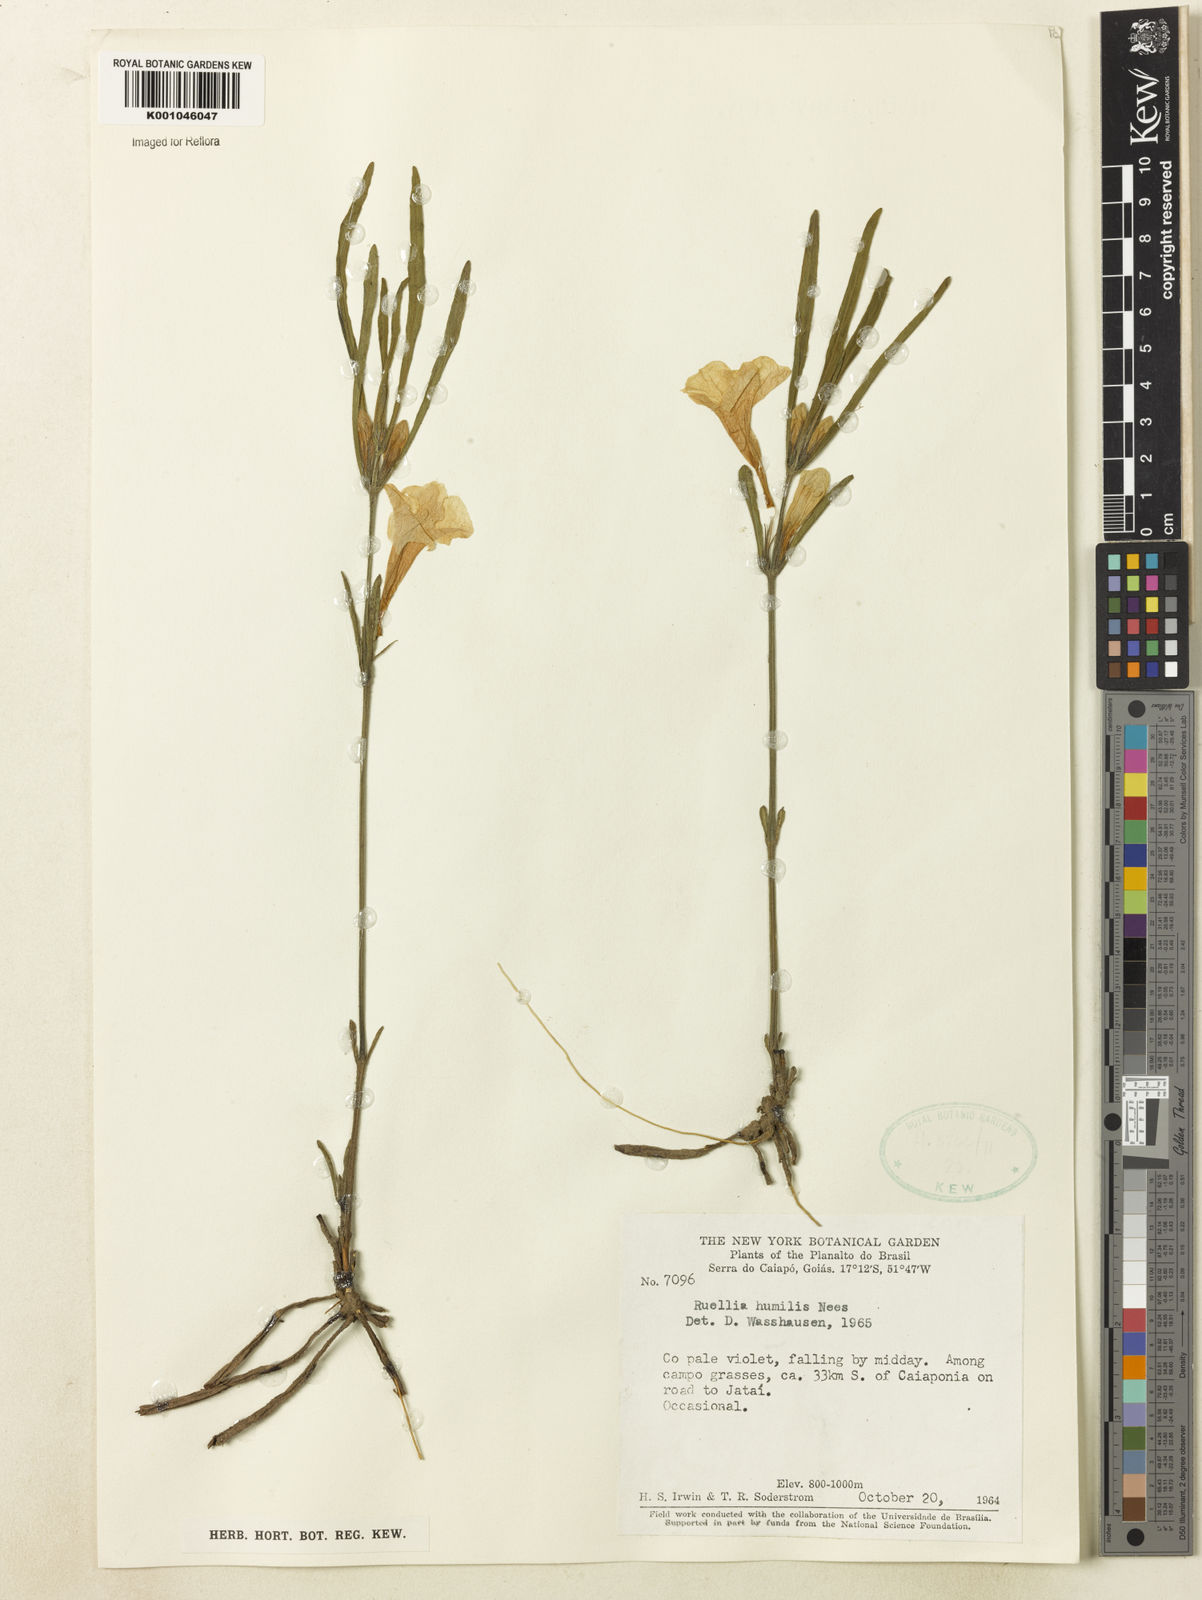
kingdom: Plantae
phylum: Tracheophyta
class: Magnoliopsida
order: Lamiales
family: Acanthaceae
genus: Ruellia
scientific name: Ruellia geminiflora
